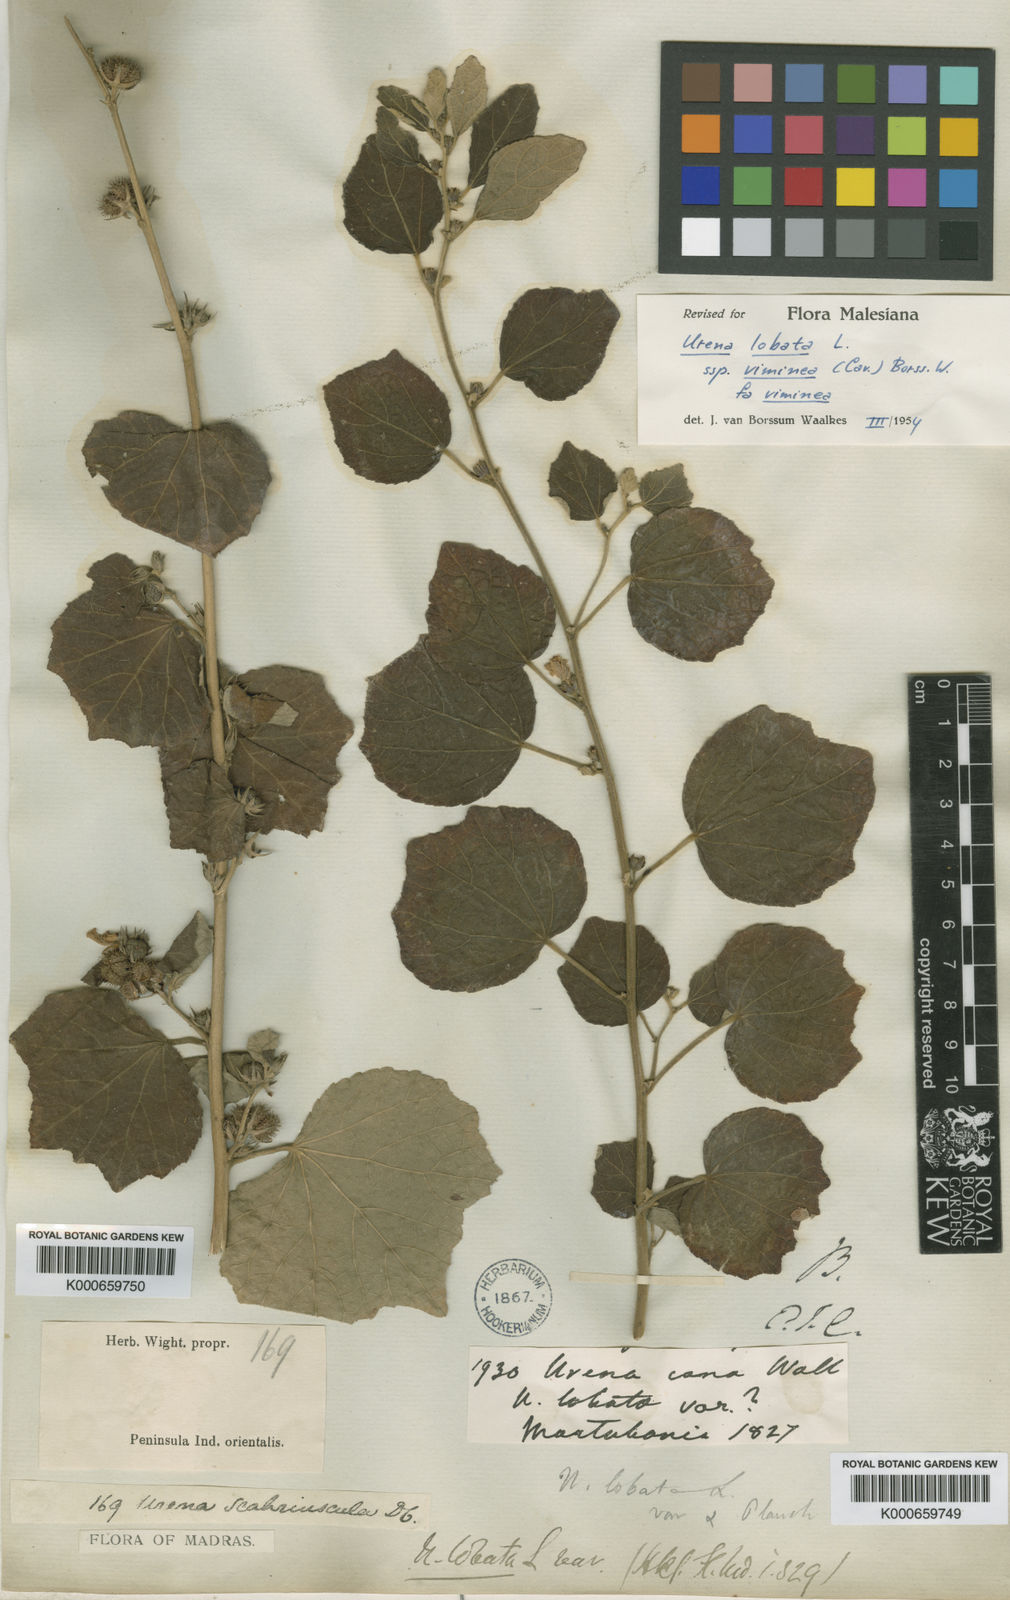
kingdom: Plantae
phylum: Tracheophyta
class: Magnoliopsida
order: Malvales
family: Malvaceae
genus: Urena
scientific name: Urena lobata
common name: Caesarweed
